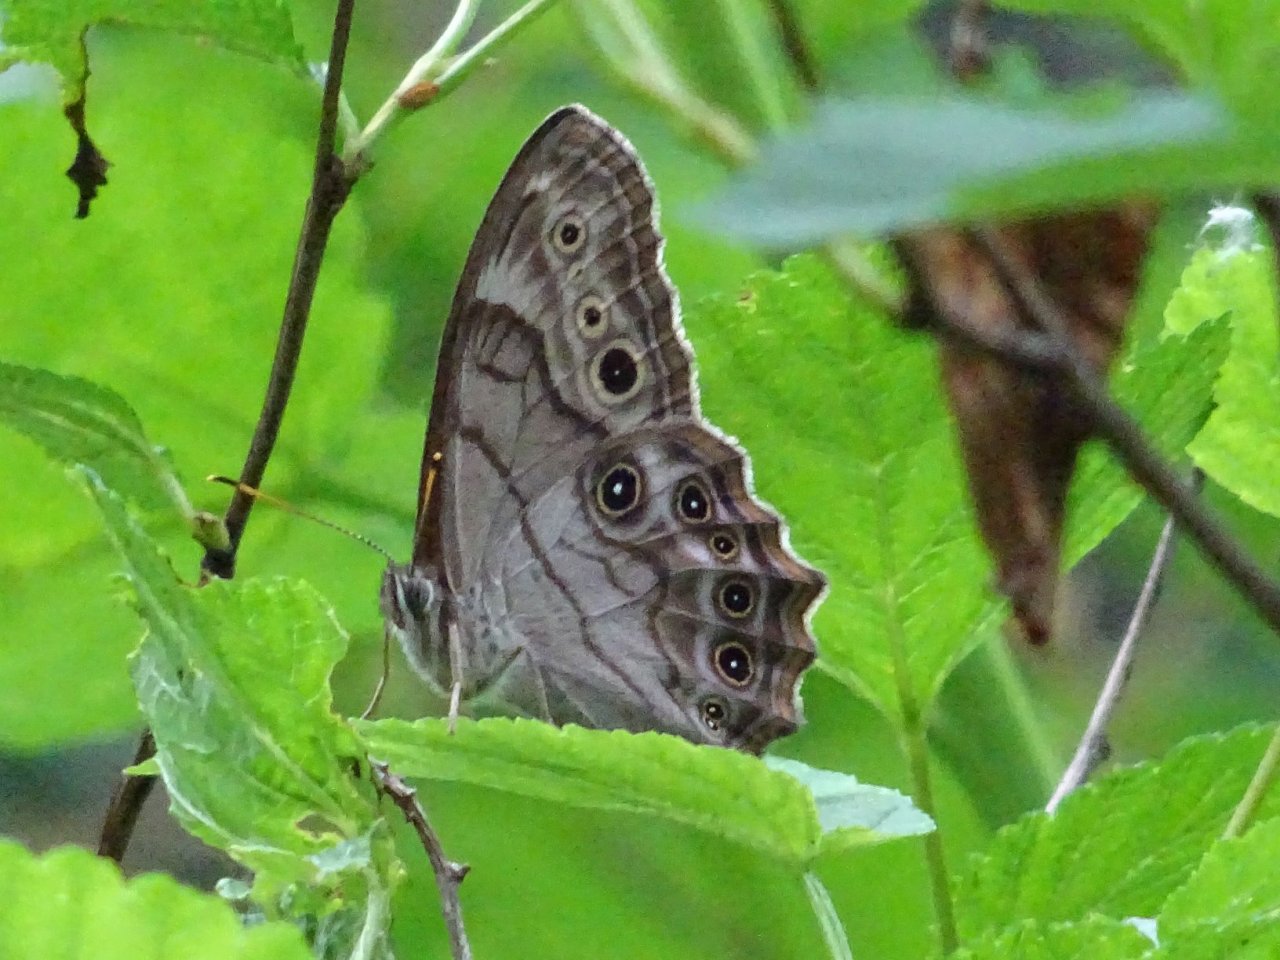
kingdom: Animalia
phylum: Arthropoda
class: Insecta
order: Lepidoptera
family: Nymphalidae
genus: Lethe
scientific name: Lethe anthedon
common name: Northern Pearly-Eye
